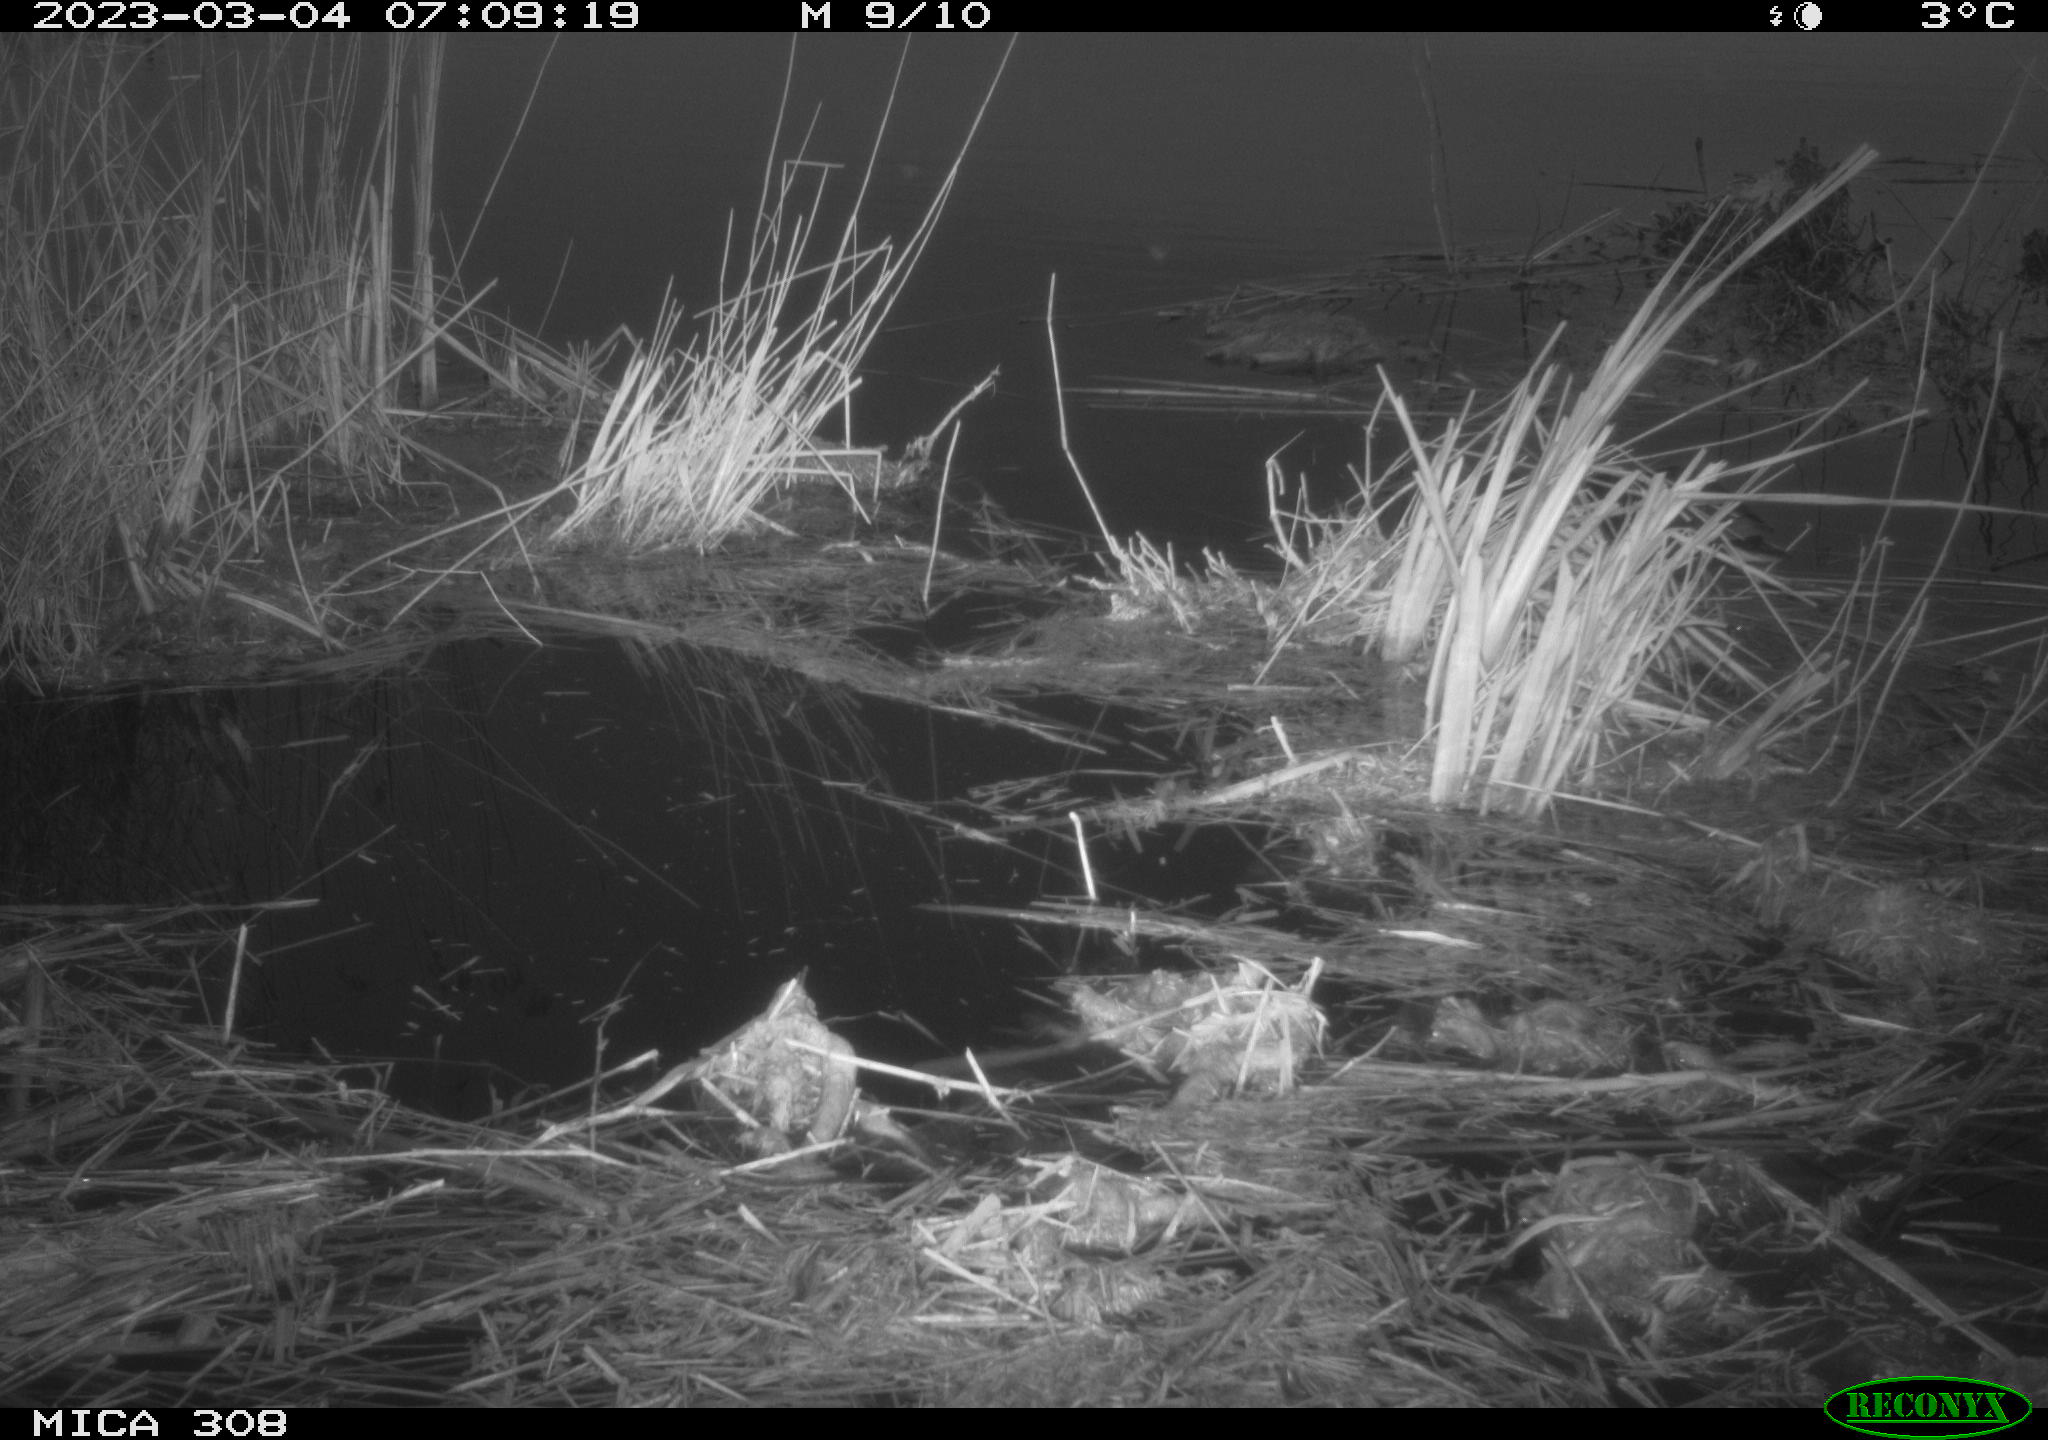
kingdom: Animalia
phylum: Chordata
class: Aves
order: Gruiformes
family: Rallidae
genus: Gallinula
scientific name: Gallinula chloropus
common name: Common moorhen
